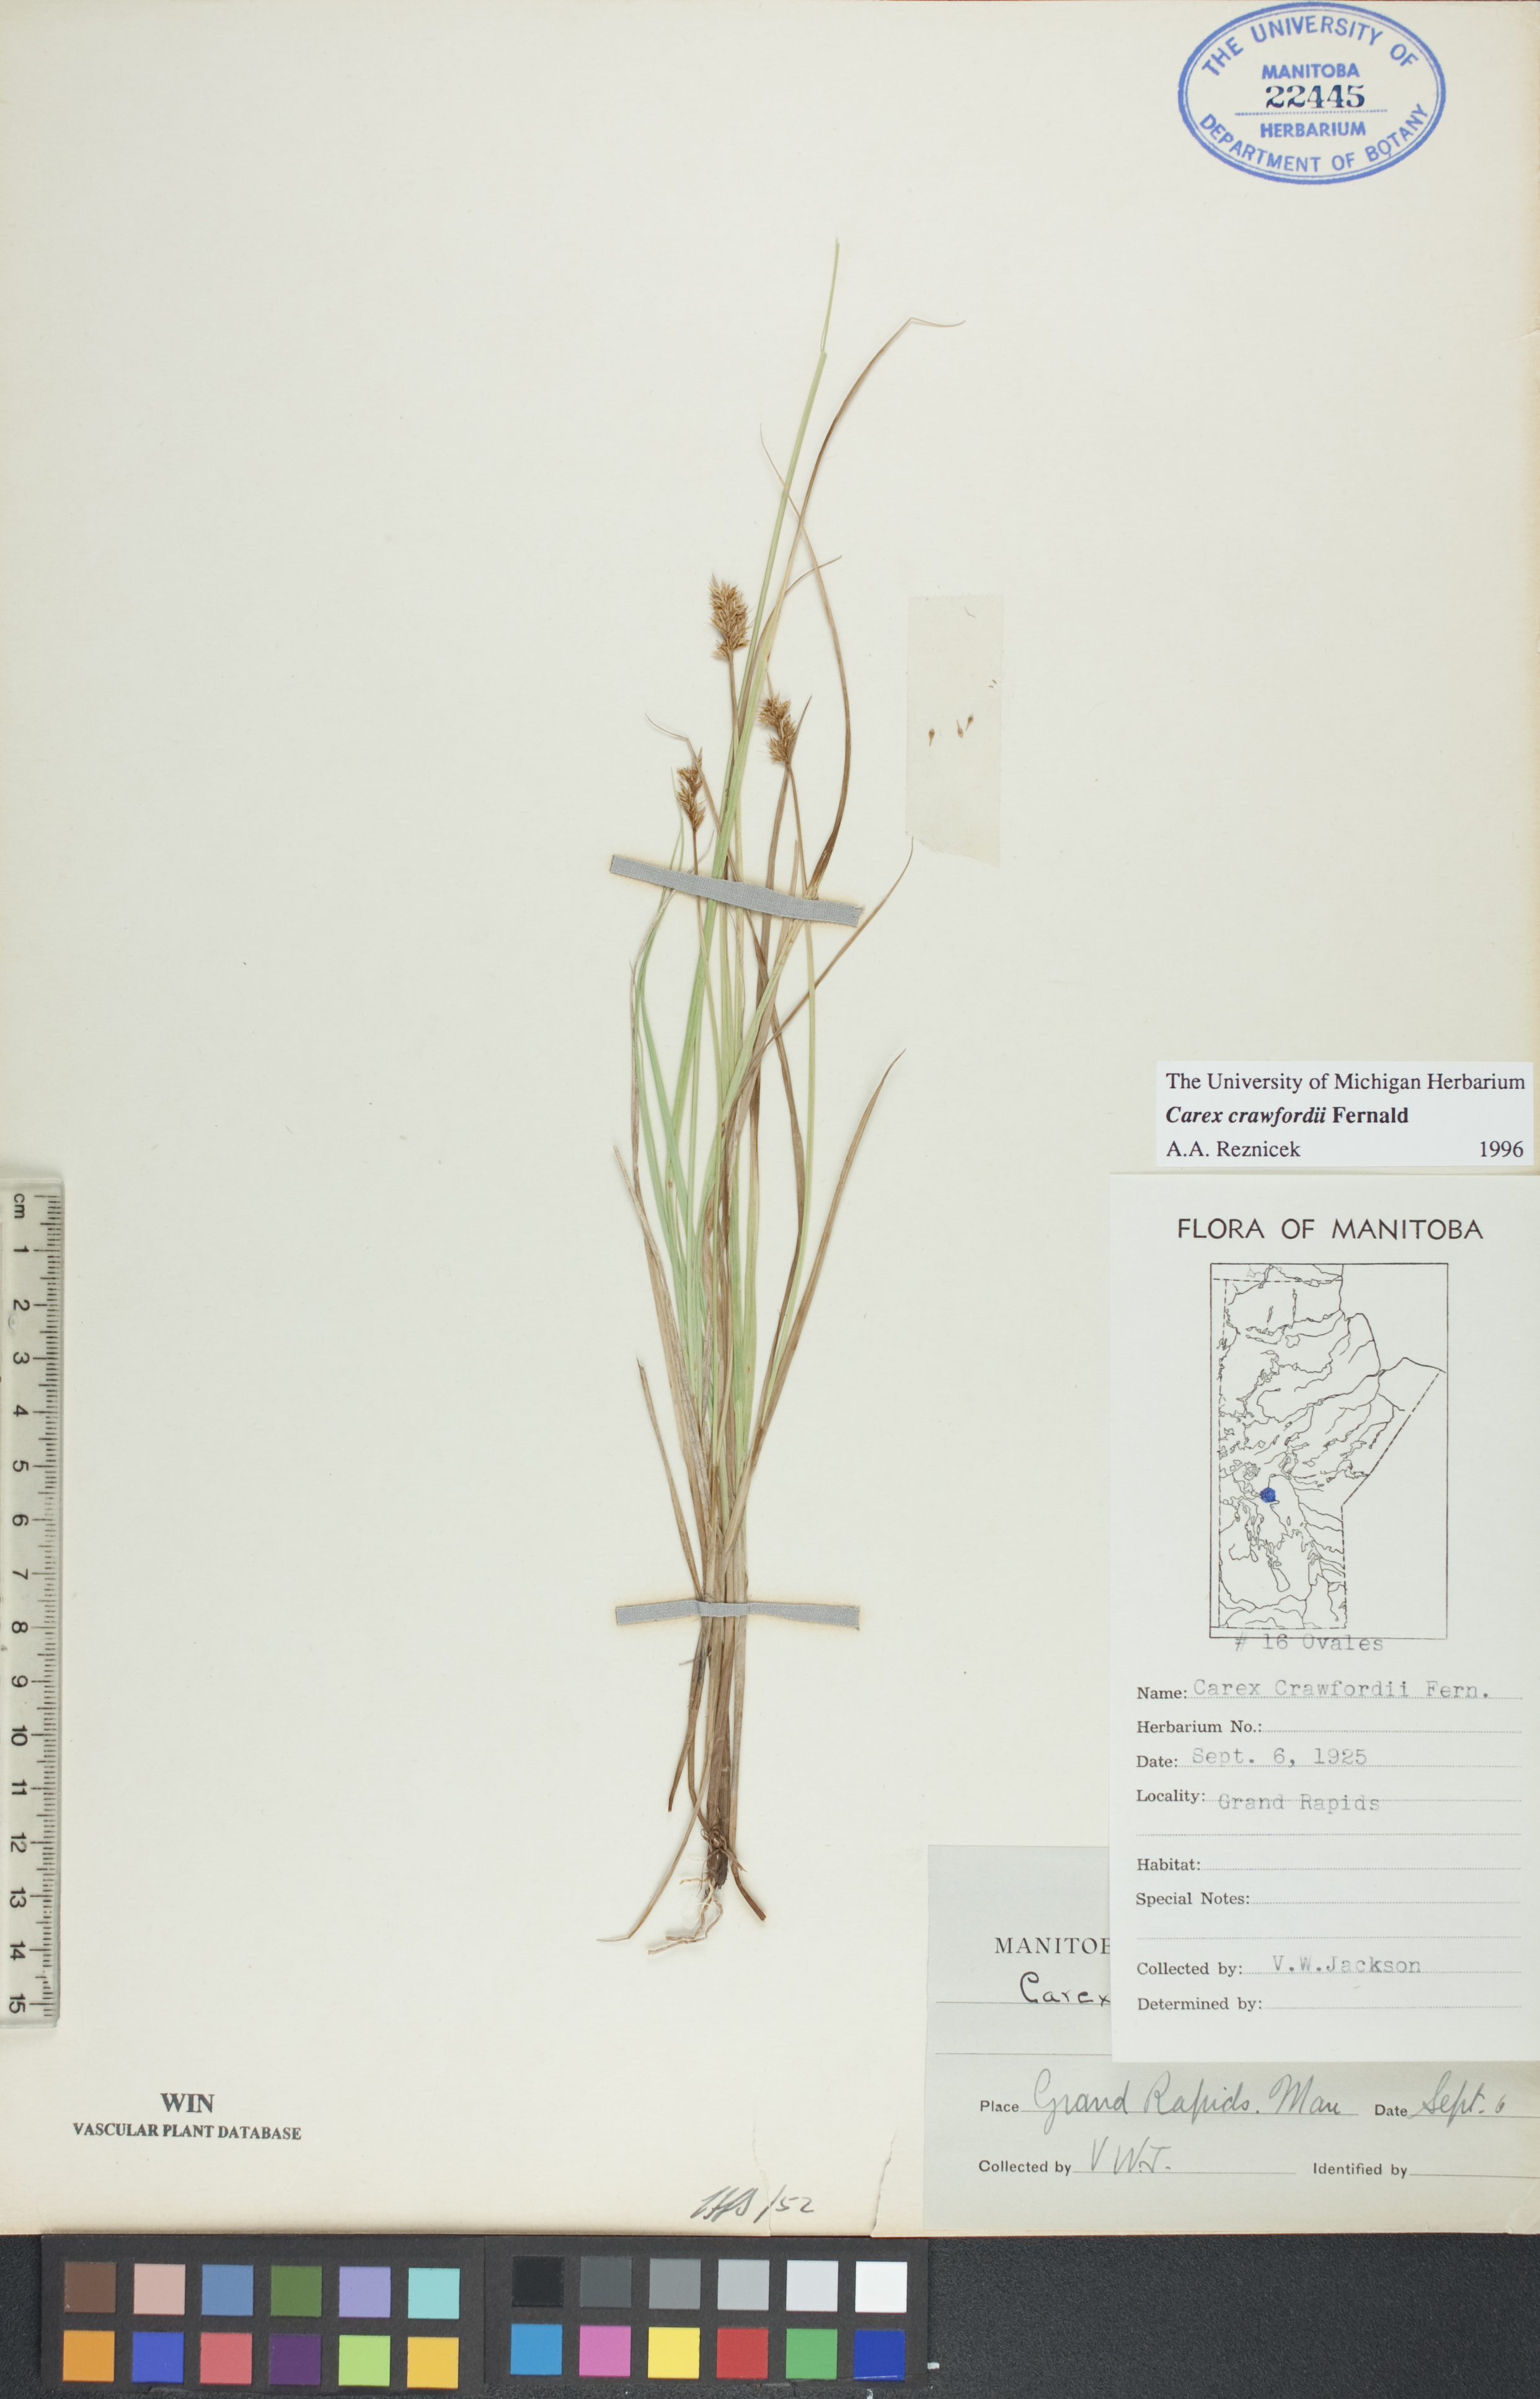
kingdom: Plantae
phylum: Tracheophyta
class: Liliopsida
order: Poales
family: Cyperaceae
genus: Carex
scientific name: Carex crawfordii
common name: Crawford's sedge
